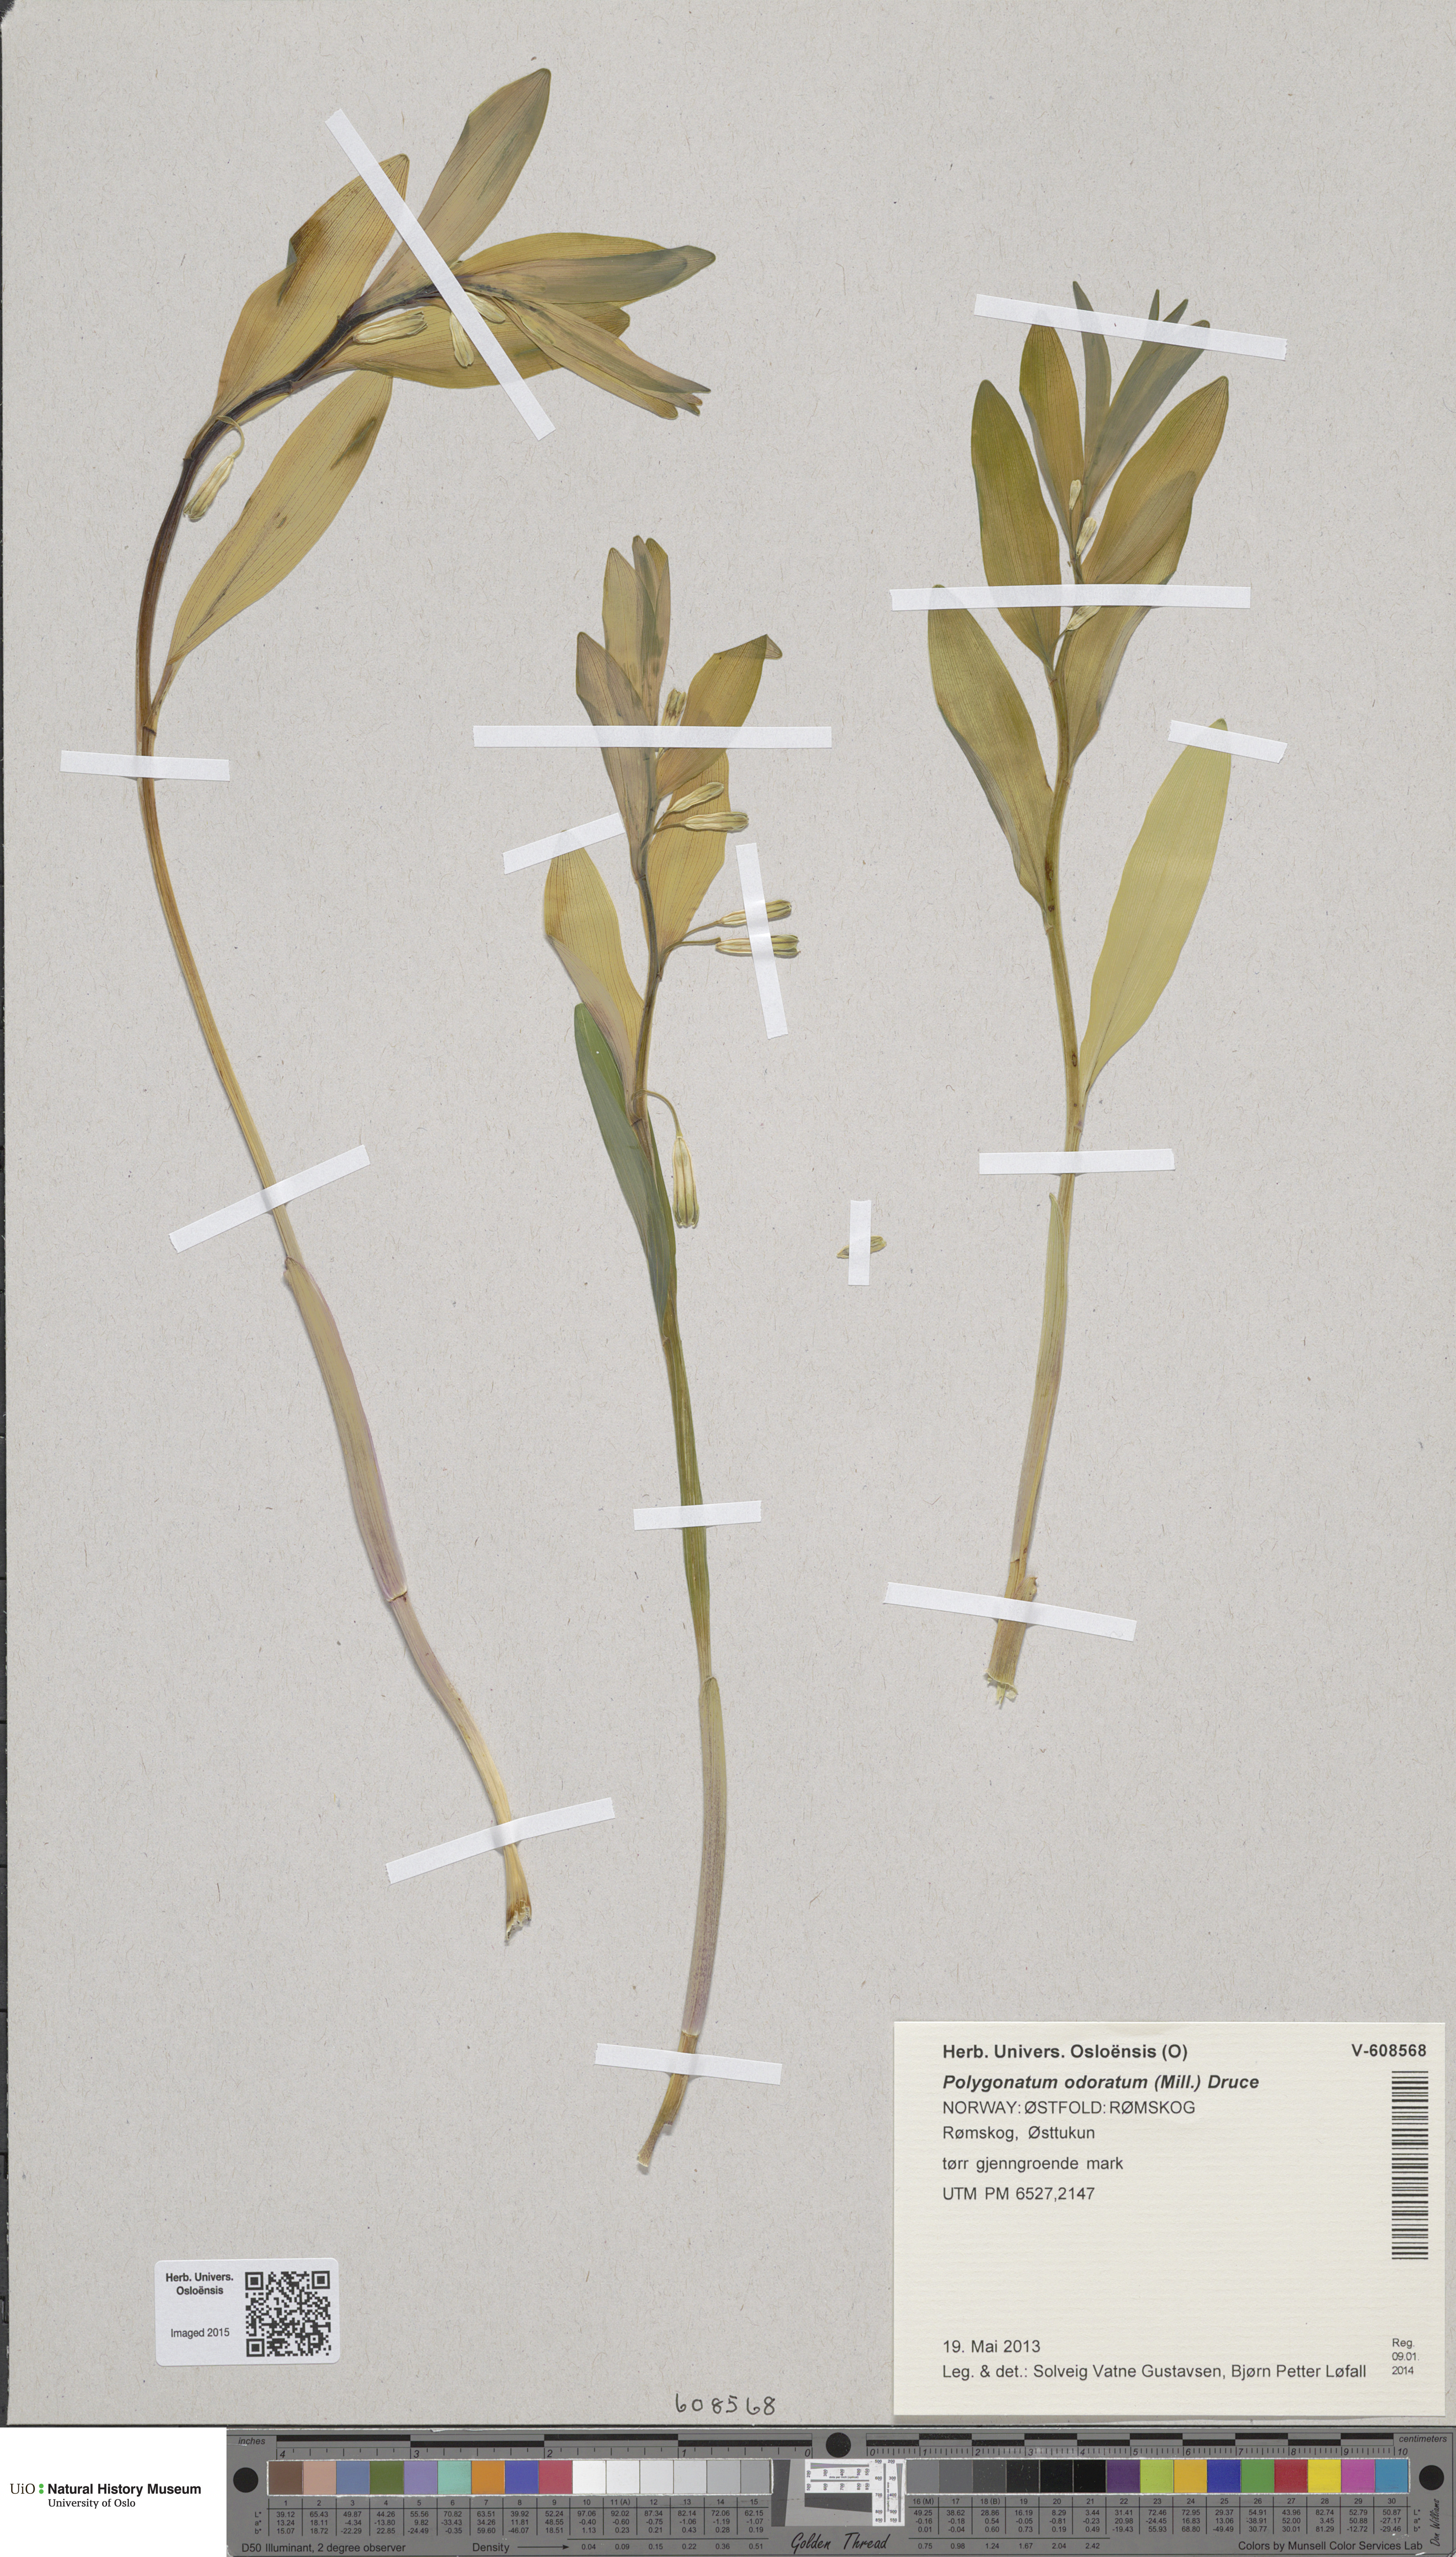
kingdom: Plantae
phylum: Tracheophyta
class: Liliopsida
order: Asparagales
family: Asparagaceae
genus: Polygonatum
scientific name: Polygonatum odoratum
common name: Angular solomon's-seal
